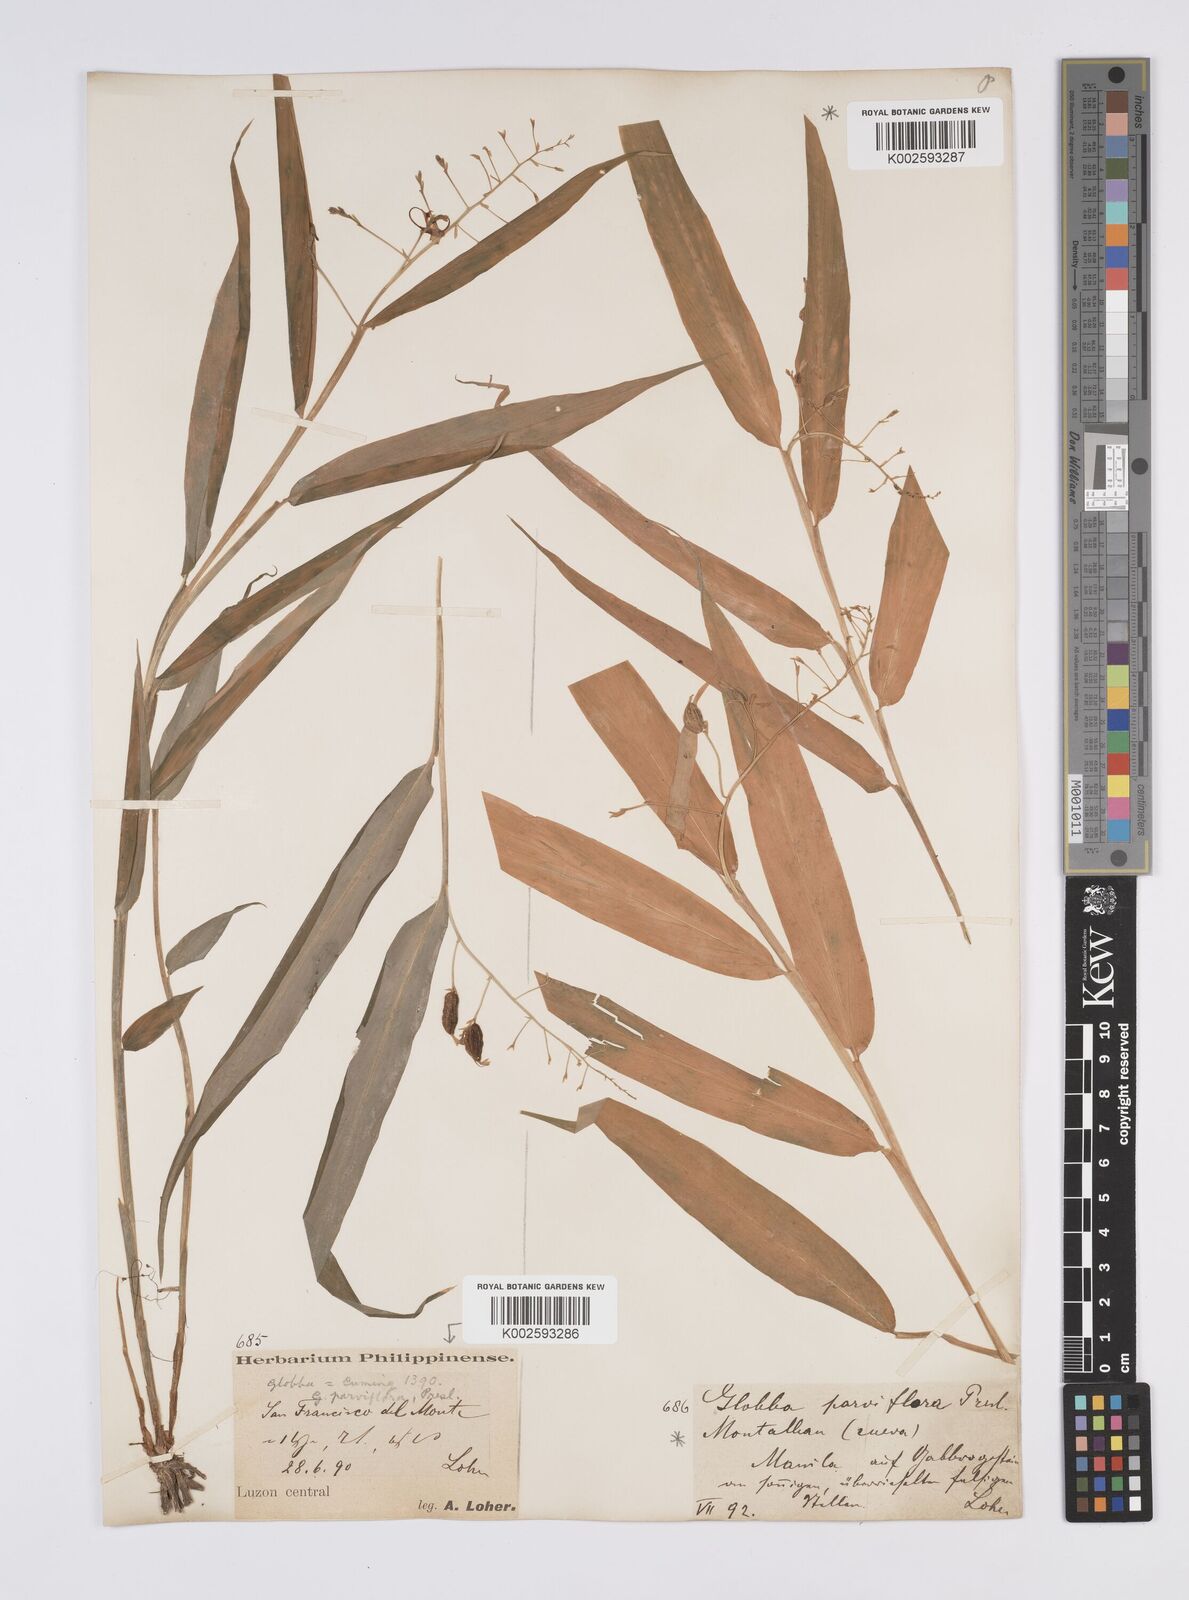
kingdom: Plantae
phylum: Tracheophyta
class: Liliopsida
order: Zingiberales
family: Zingiberaceae
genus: Globba
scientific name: Globba campsophylla
